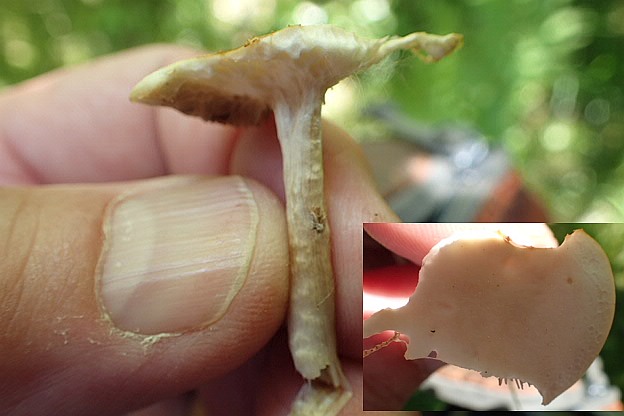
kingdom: Fungi
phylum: Basidiomycota
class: Agaricomycetes
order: Agaricales
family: Psathyrellaceae
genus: Candolleomyces
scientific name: Candolleomyces candolleanus
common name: Candolles mørkhat
